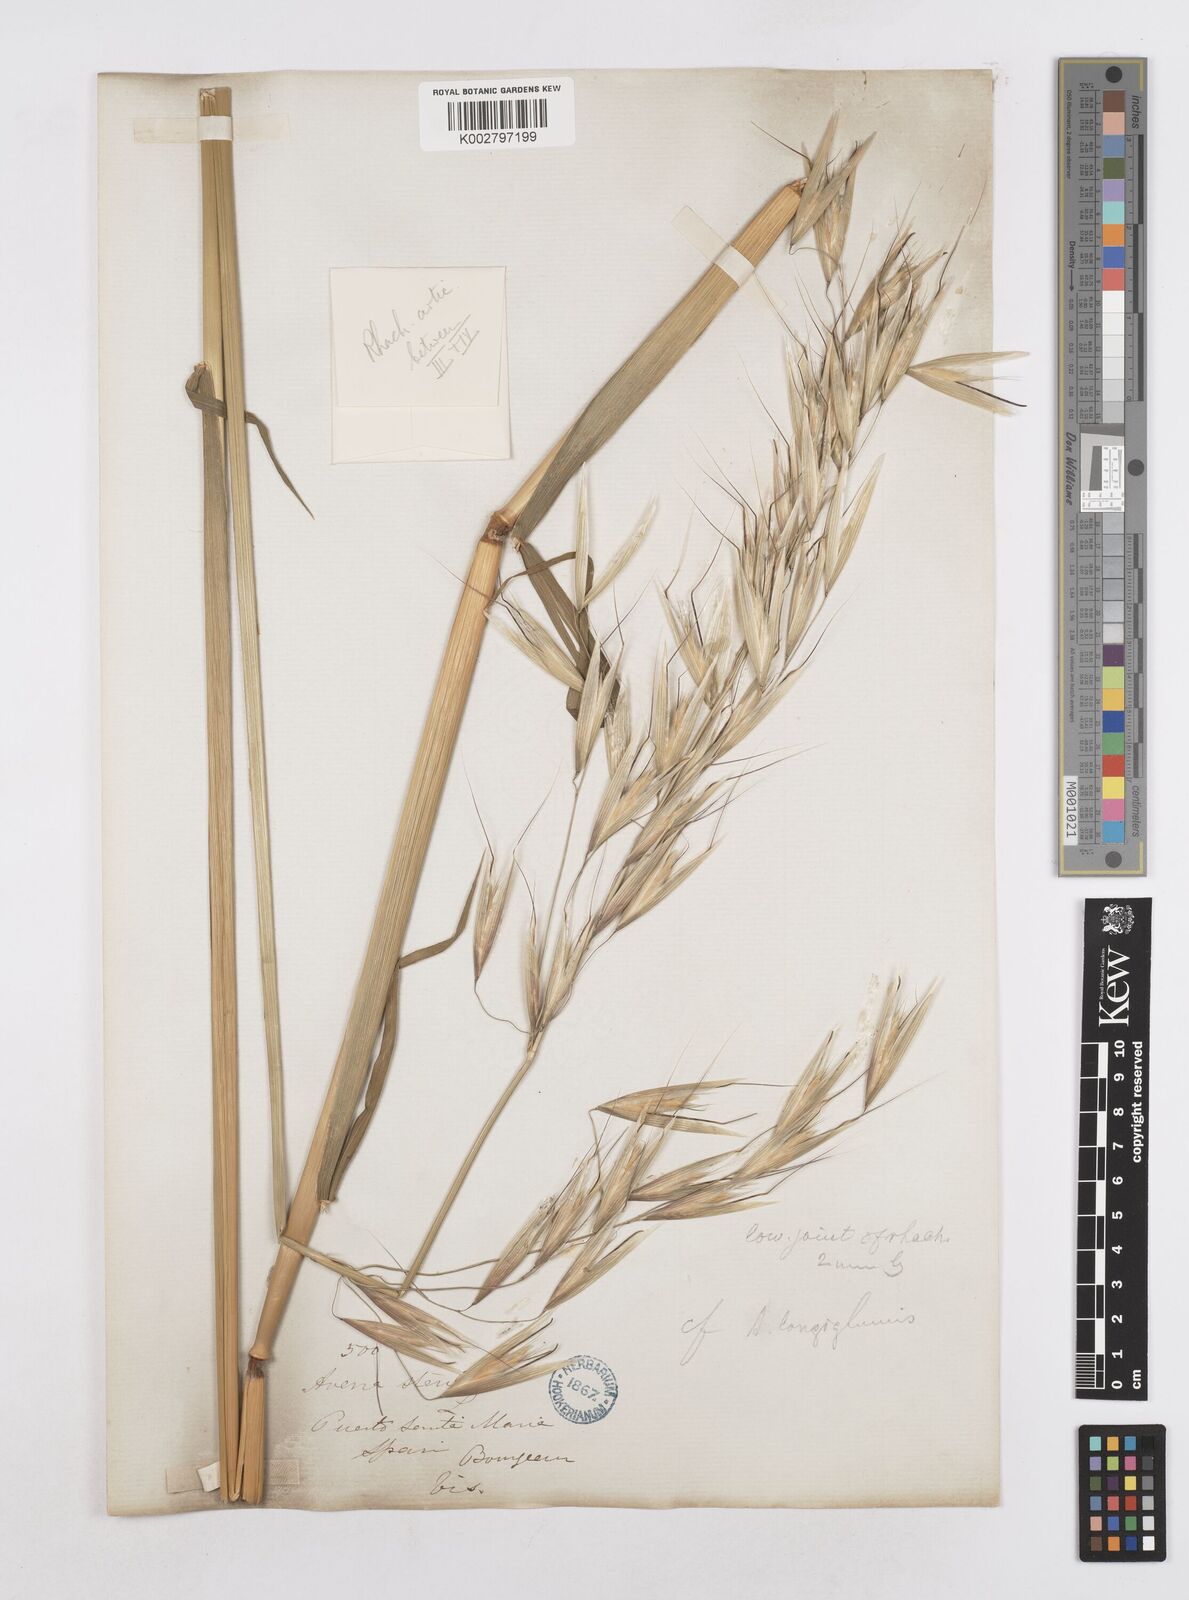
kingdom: Plantae
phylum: Tracheophyta
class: Liliopsida
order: Poales
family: Poaceae
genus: Avena
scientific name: Avena longiglumis
